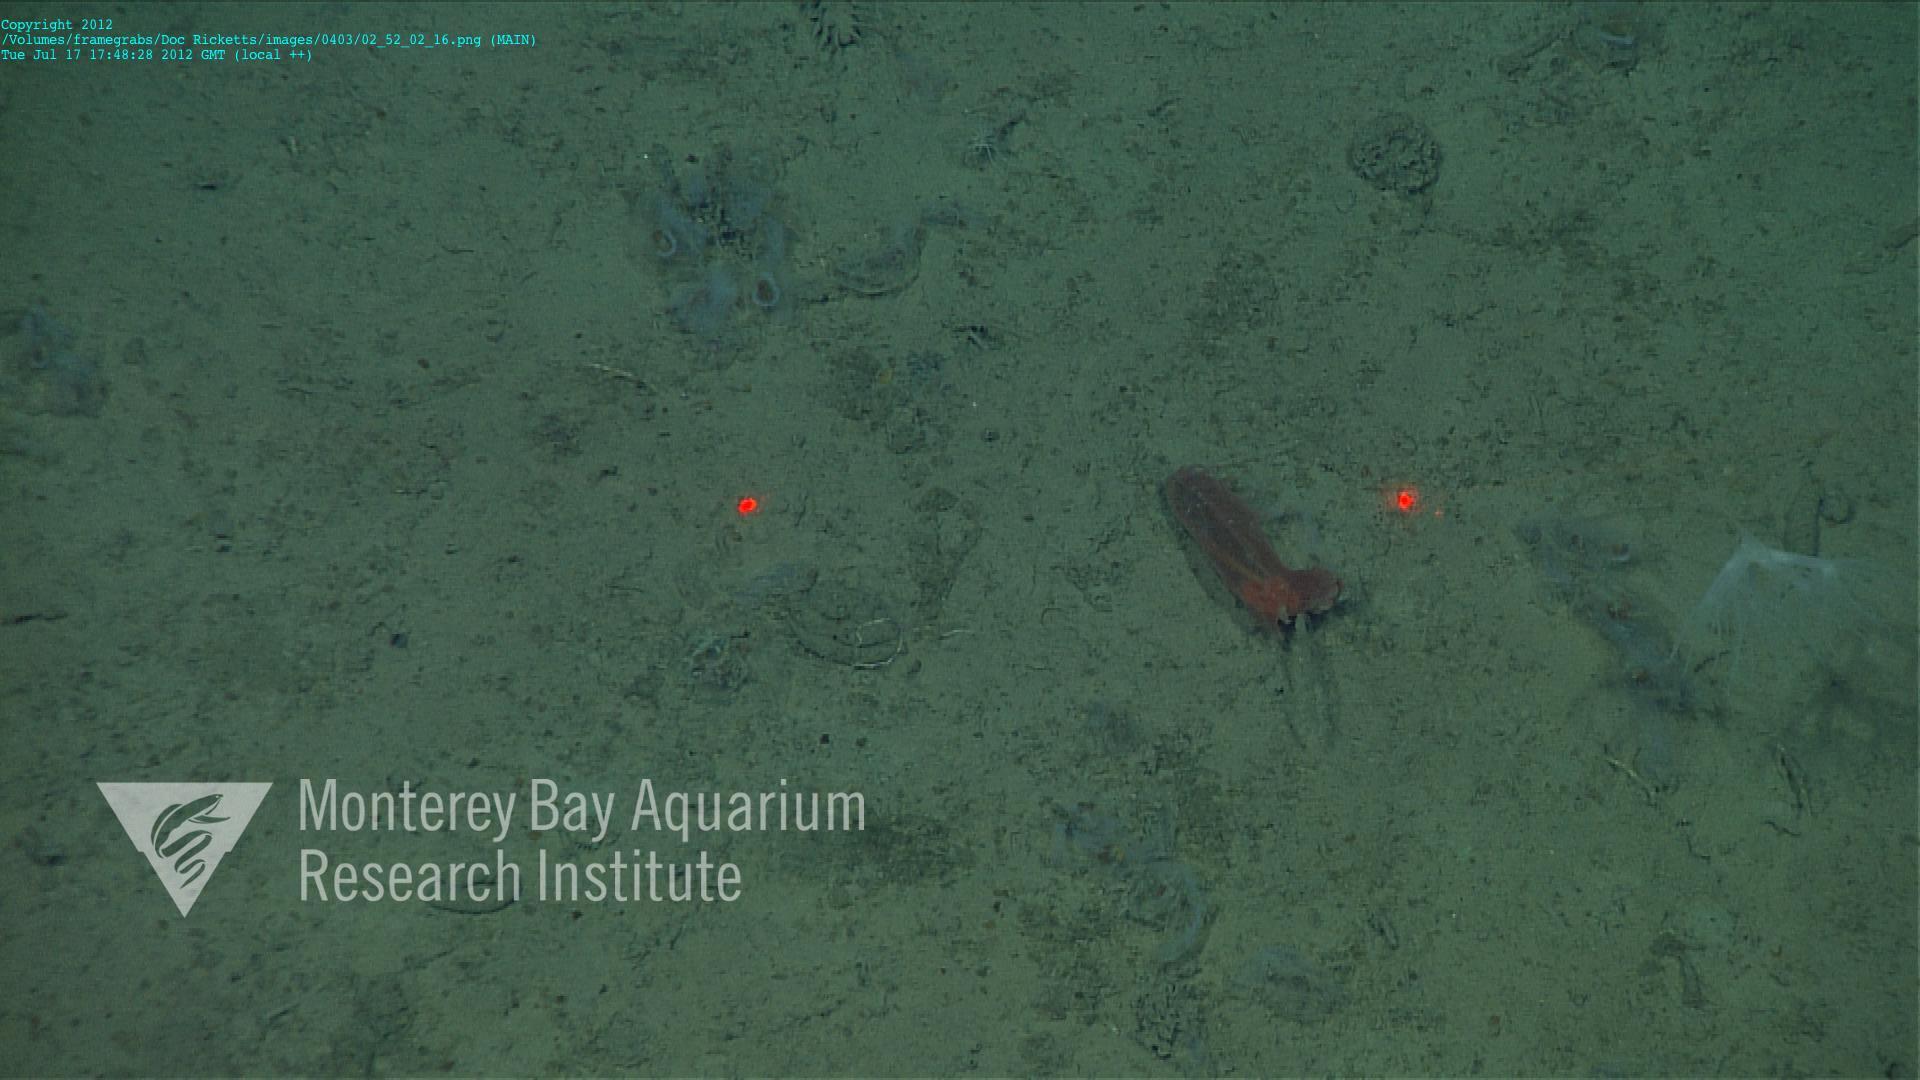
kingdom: Animalia
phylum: Cnidaria
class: Anthozoa
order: Scleralcyonacea
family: Umbellulidae
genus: Umbellula
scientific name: Umbellula
